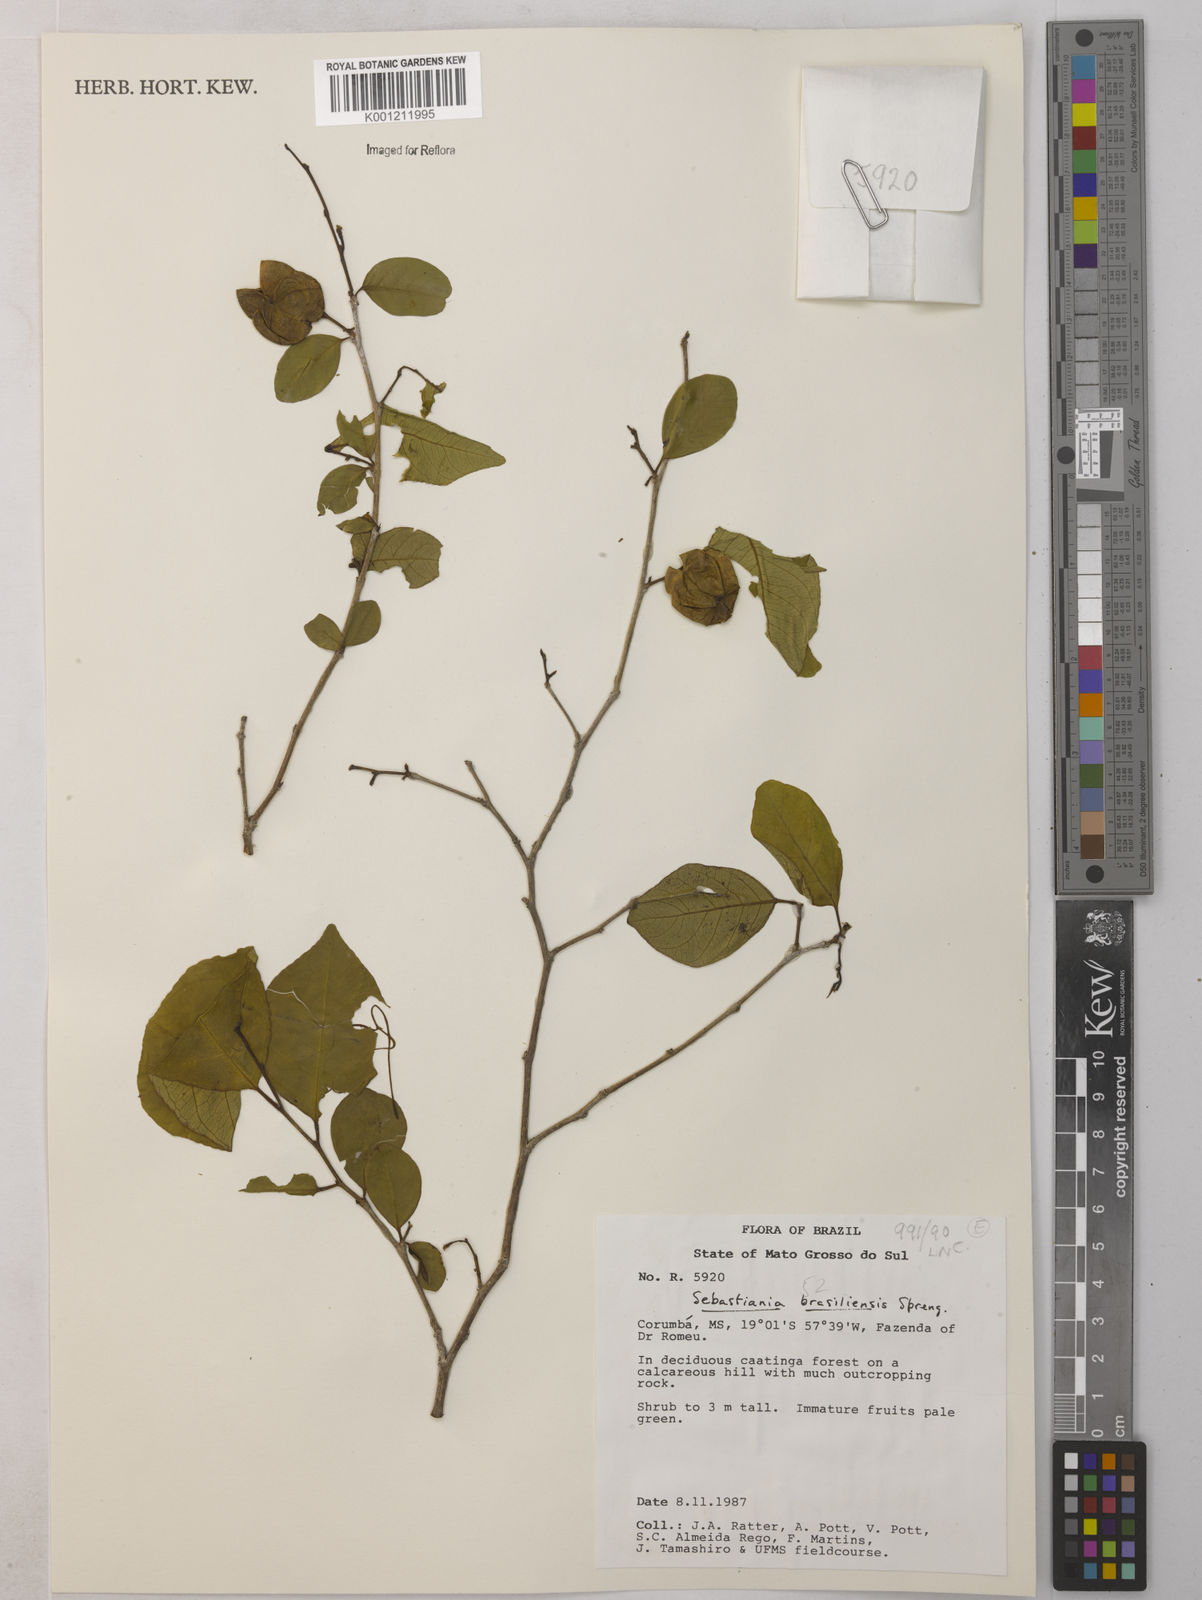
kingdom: Plantae
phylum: Tracheophyta
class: Magnoliopsida
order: Malpighiales
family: Euphorbiaceae
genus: Sebastiania
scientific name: Sebastiania brasiliensis
